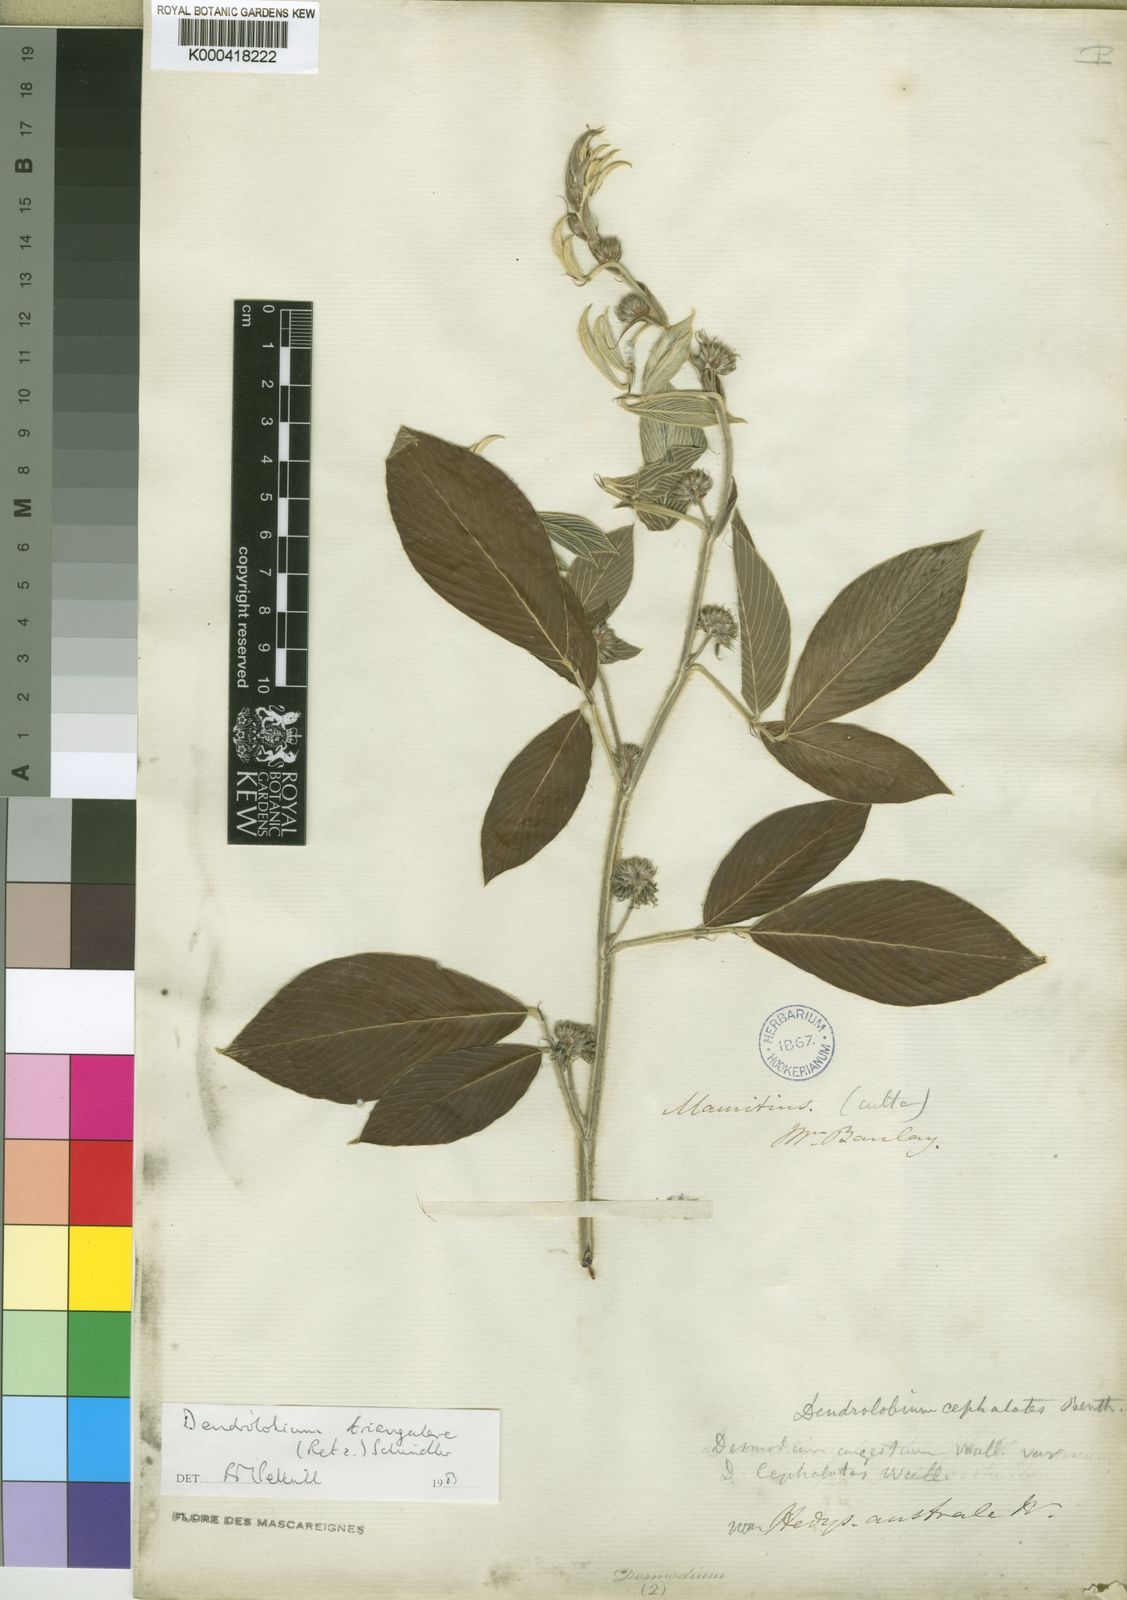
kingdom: Plantae
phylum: Tracheophyta
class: Magnoliopsida
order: Fabales
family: Fabaceae
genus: Dendrolobium
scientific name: Dendrolobium triangulare
